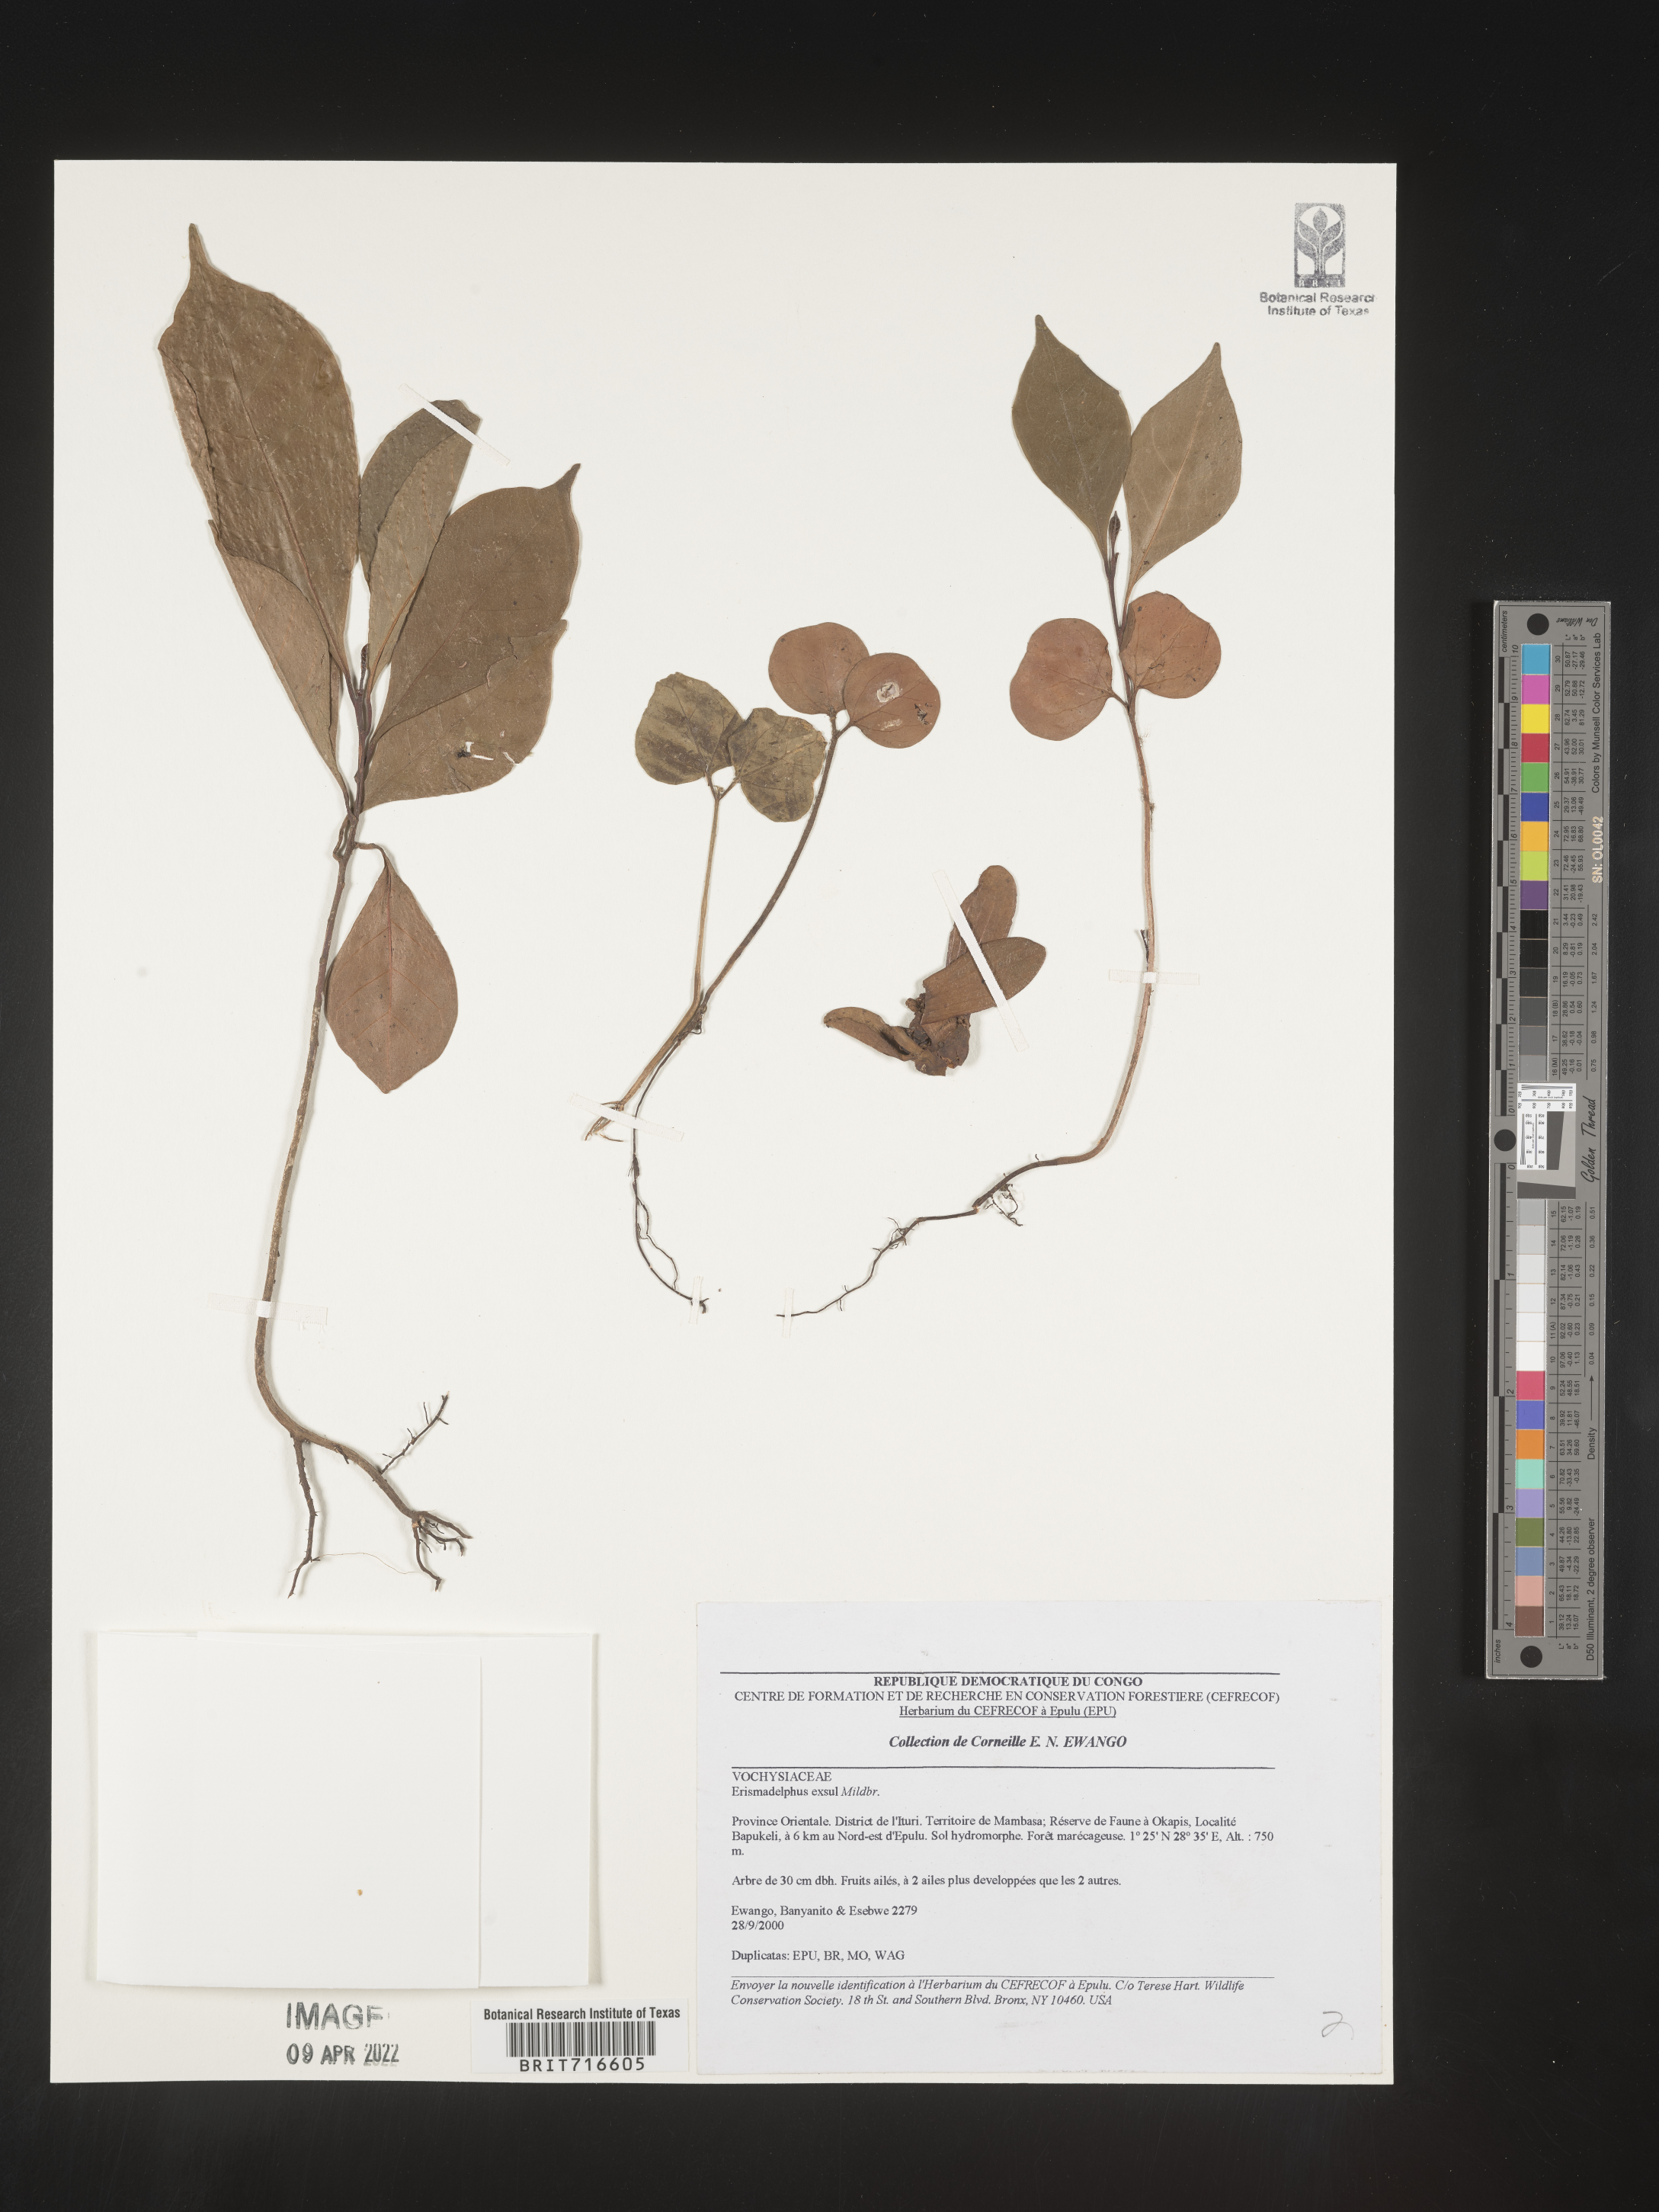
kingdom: Plantae
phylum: Tracheophyta
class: Magnoliopsida
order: Myrtales
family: Vochysiaceae
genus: Erismadelphus
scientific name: Erismadelphus
